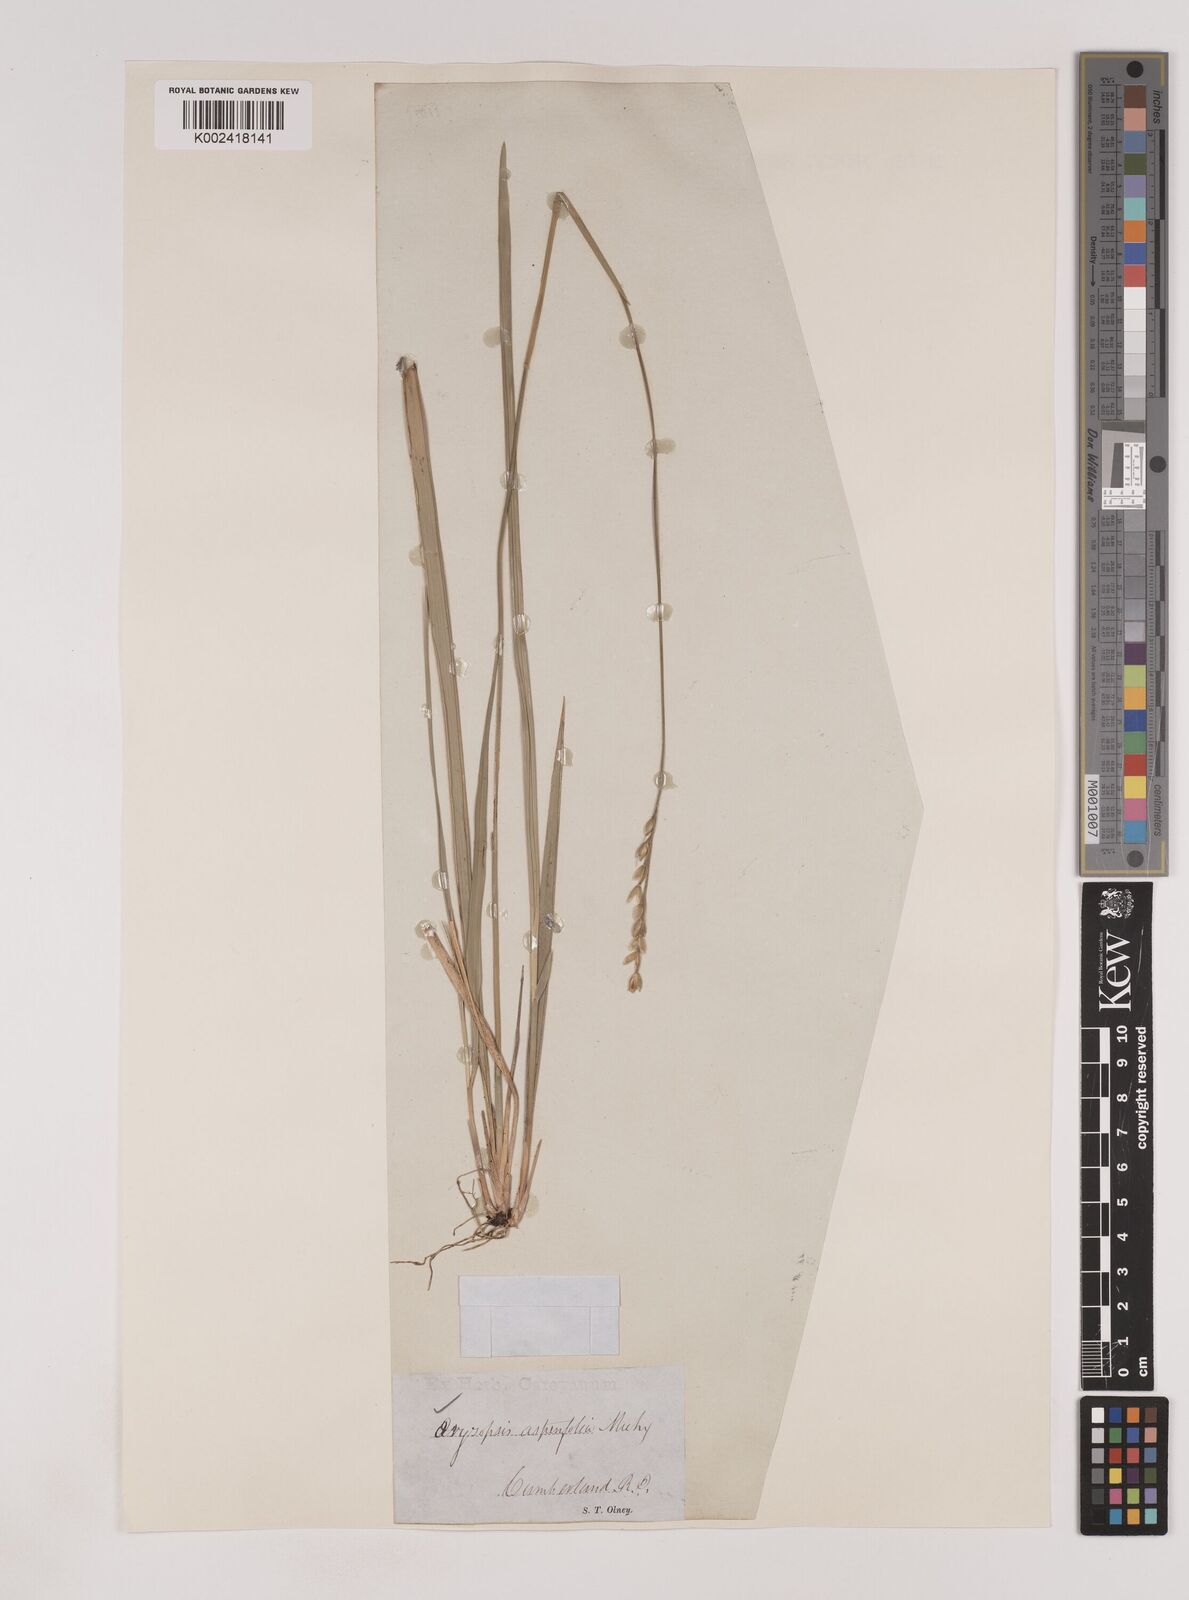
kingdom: Plantae
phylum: Tracheophyta
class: Liliopsida
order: Poales
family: Poaceae
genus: Oryzopsis
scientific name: Oryzopsis asperifolia
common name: Rough-leaved mountain rice
